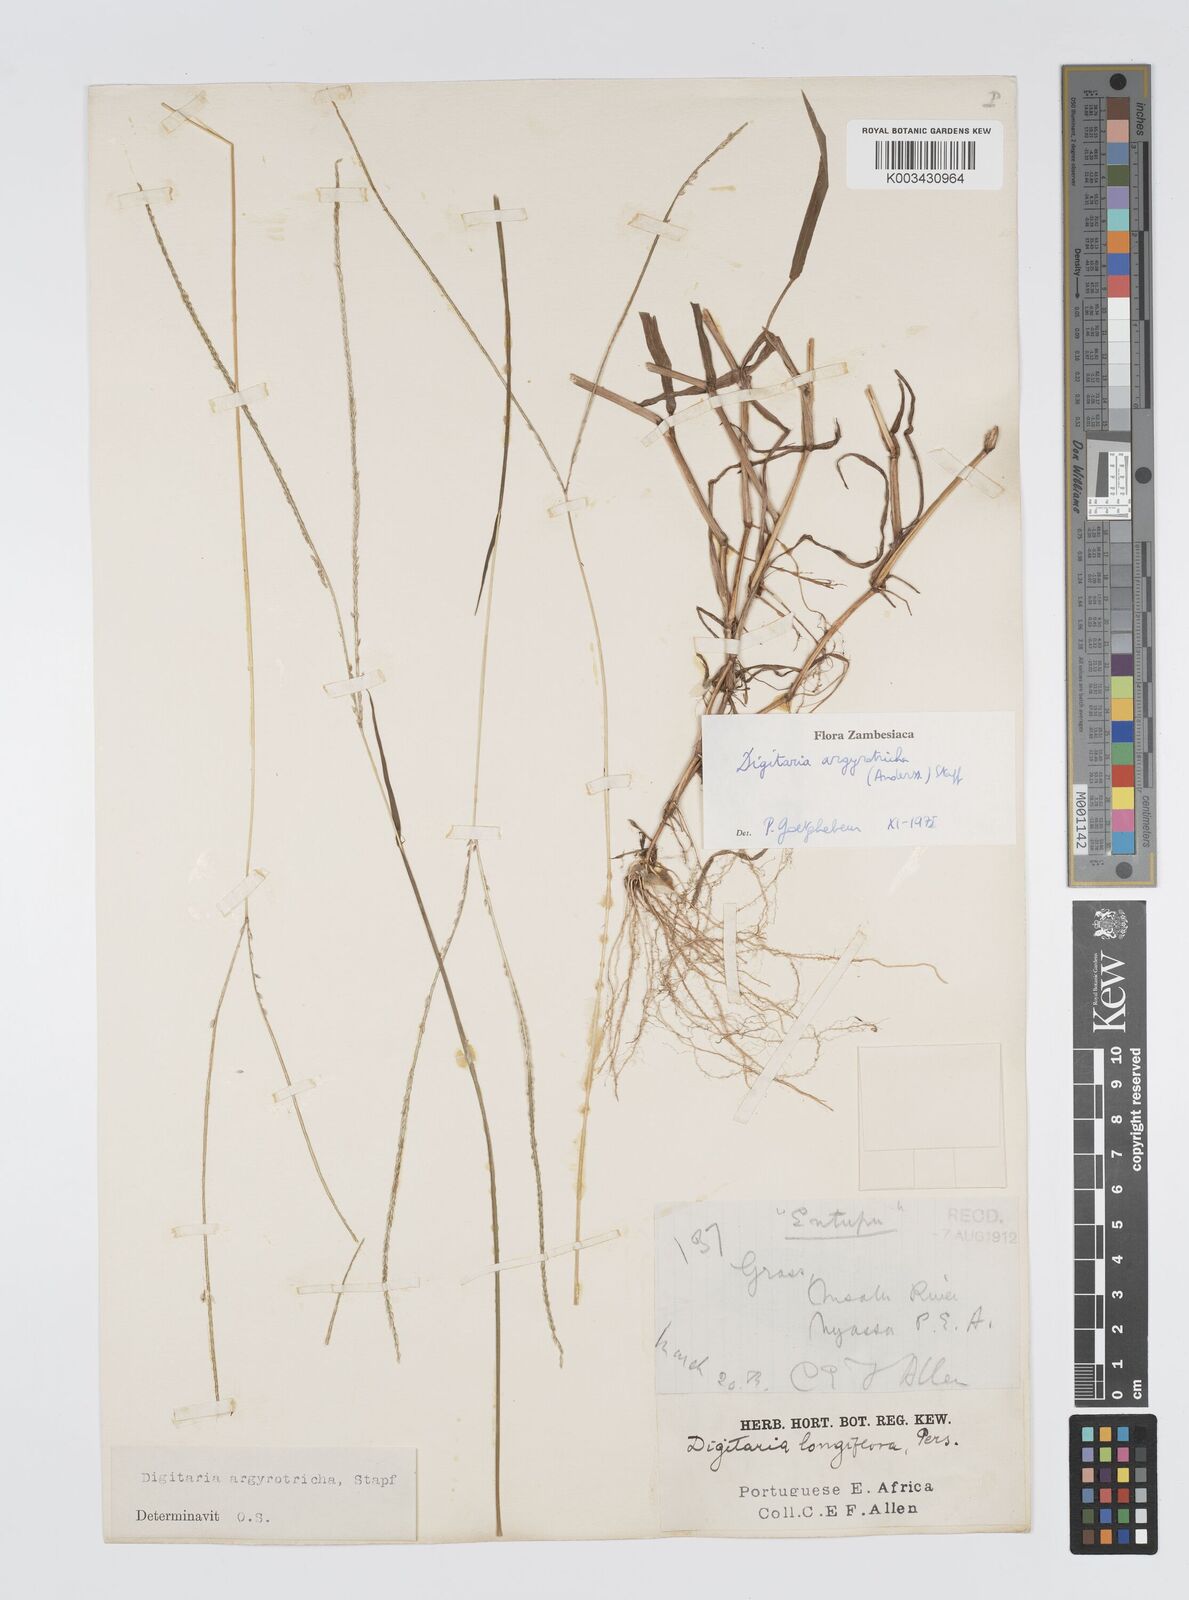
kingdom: Plantae
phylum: Tracheophyta
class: Liliopsida
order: Poales
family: Poaceae
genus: Digitaria
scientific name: Digitaria argyrotricha
